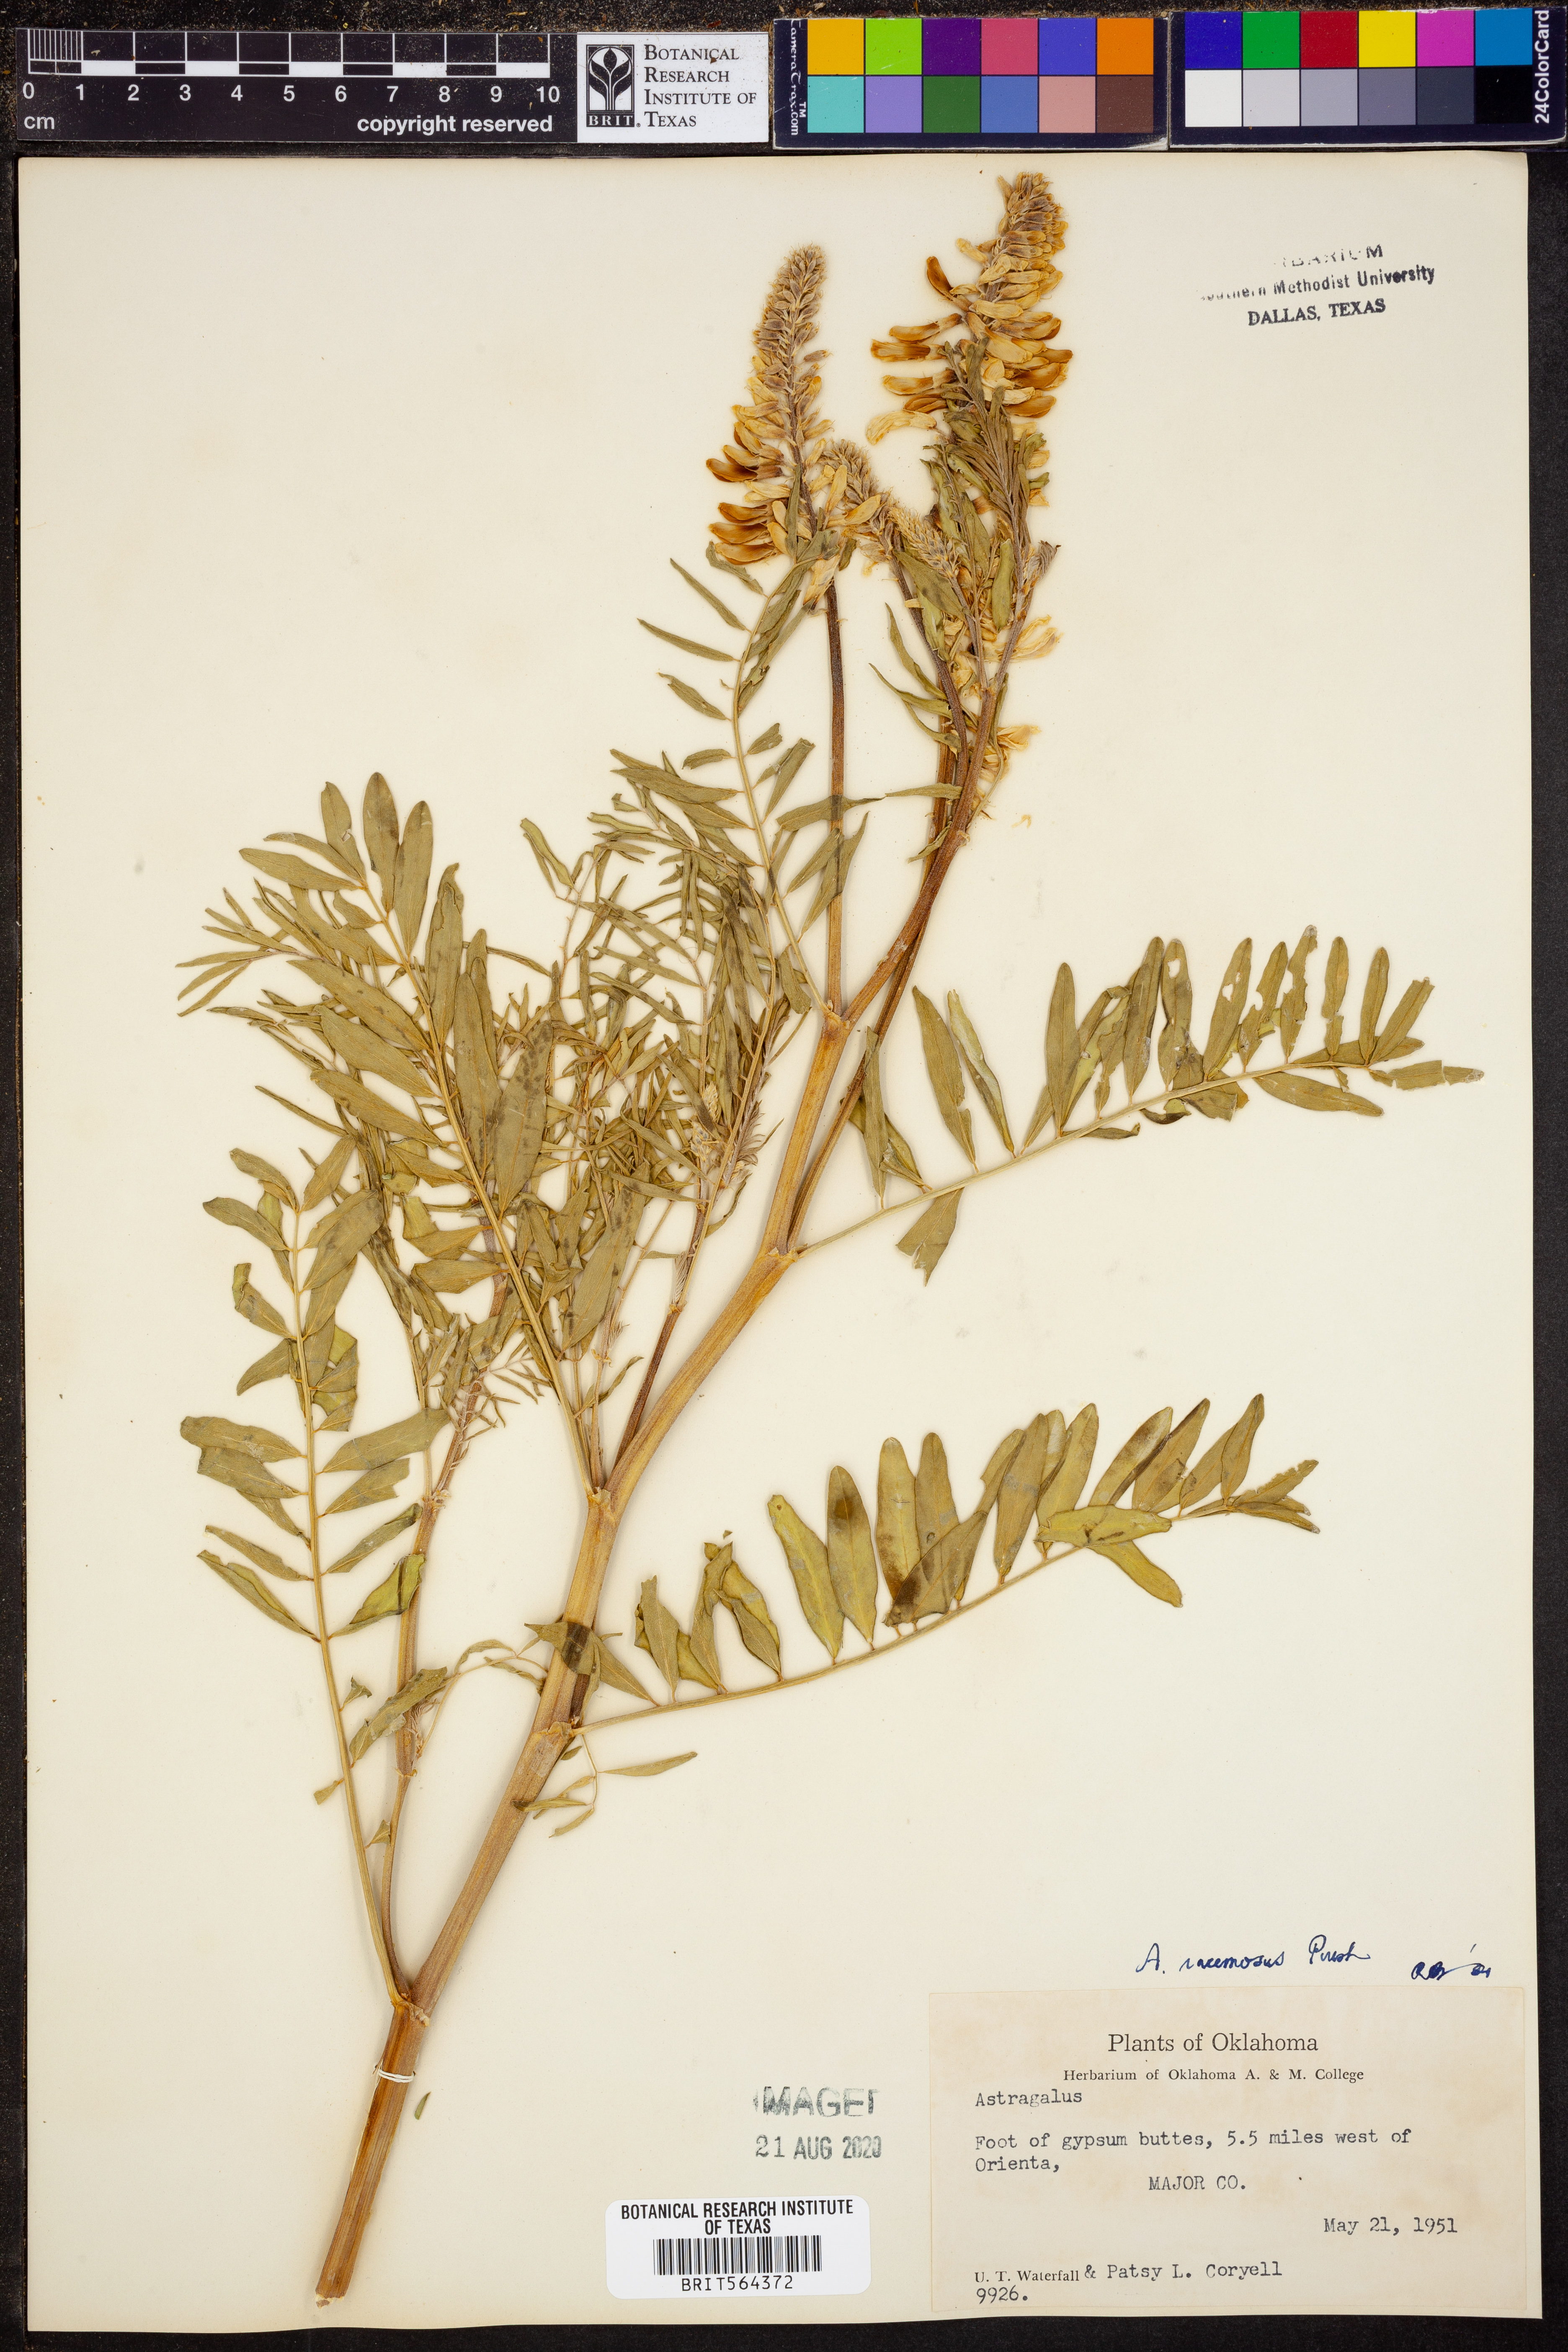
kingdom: Plantae
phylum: Tracheophyta
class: Magnoliopsida
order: Fabales
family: Fabaceae
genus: Astragalus
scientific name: Astragalus racemosus
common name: Alkali milk-vetch
